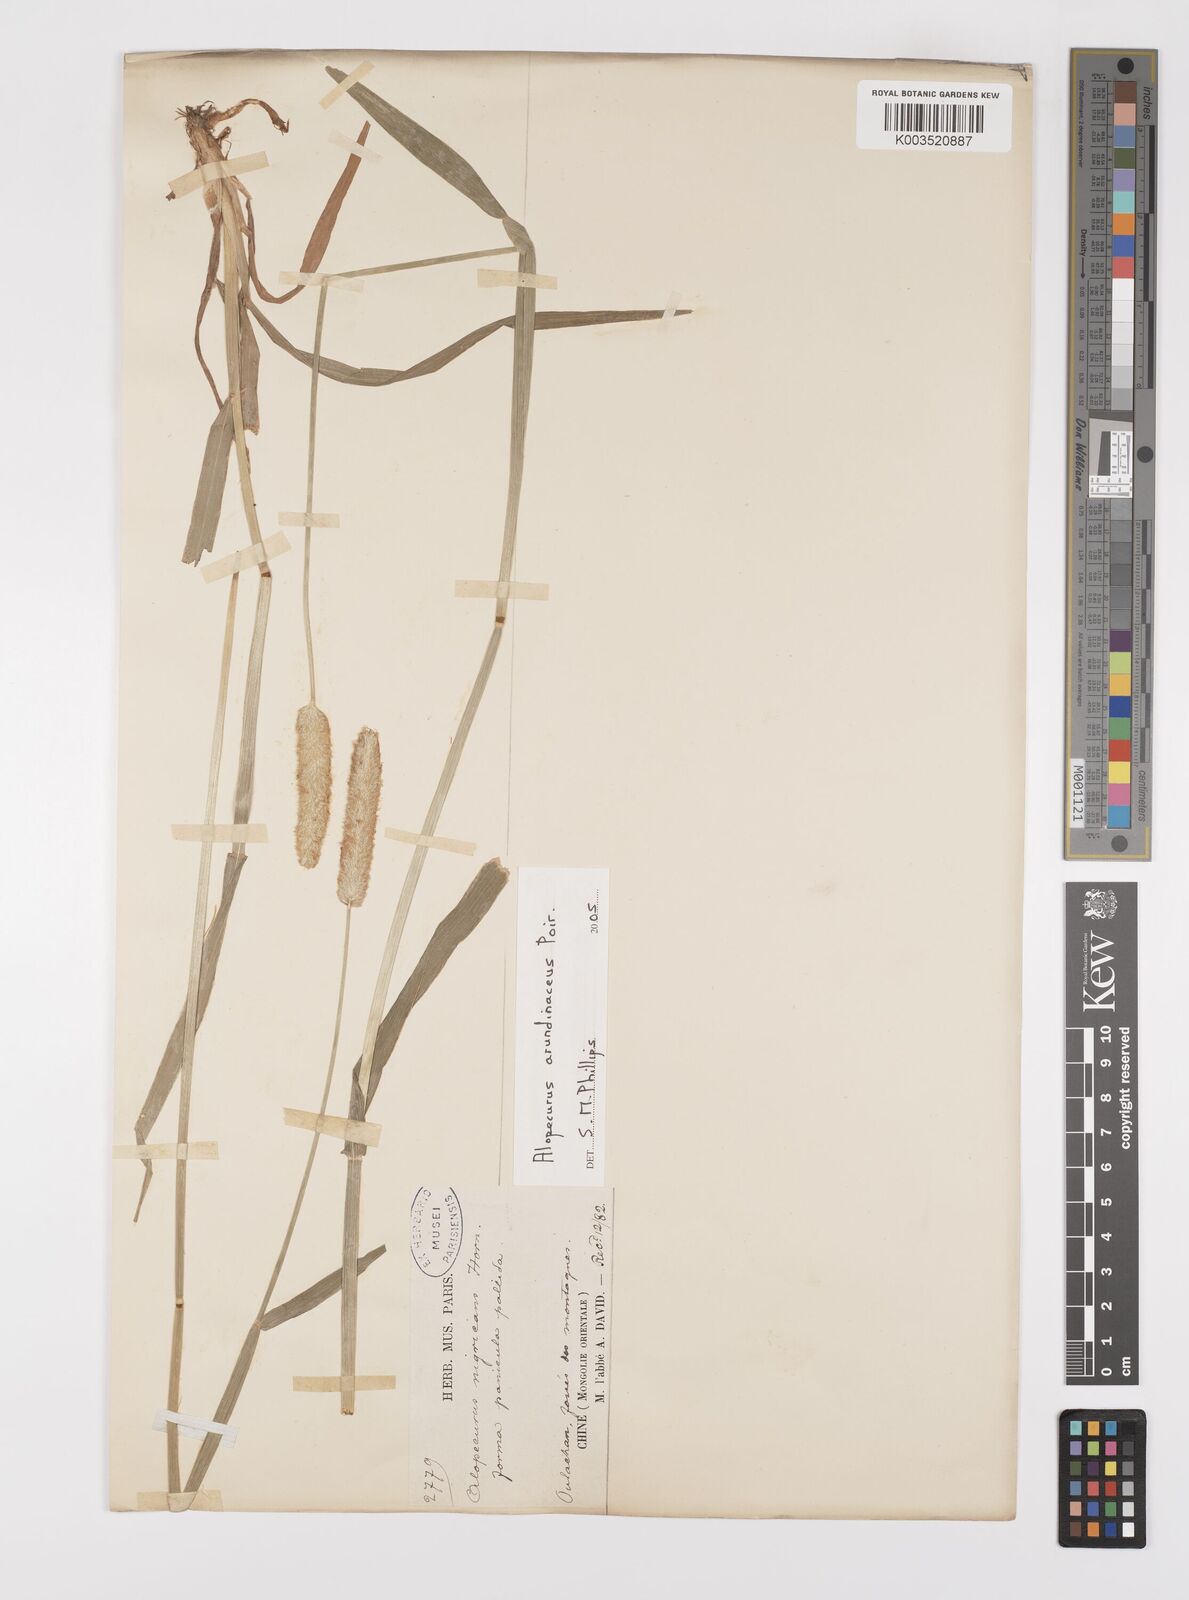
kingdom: Plantae
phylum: Tracheophyta
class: Liliopsida
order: Poales
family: Poaceae
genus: Alopecurus
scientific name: Alopecurus arundinaceus
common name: Creeping meadow foxtail
